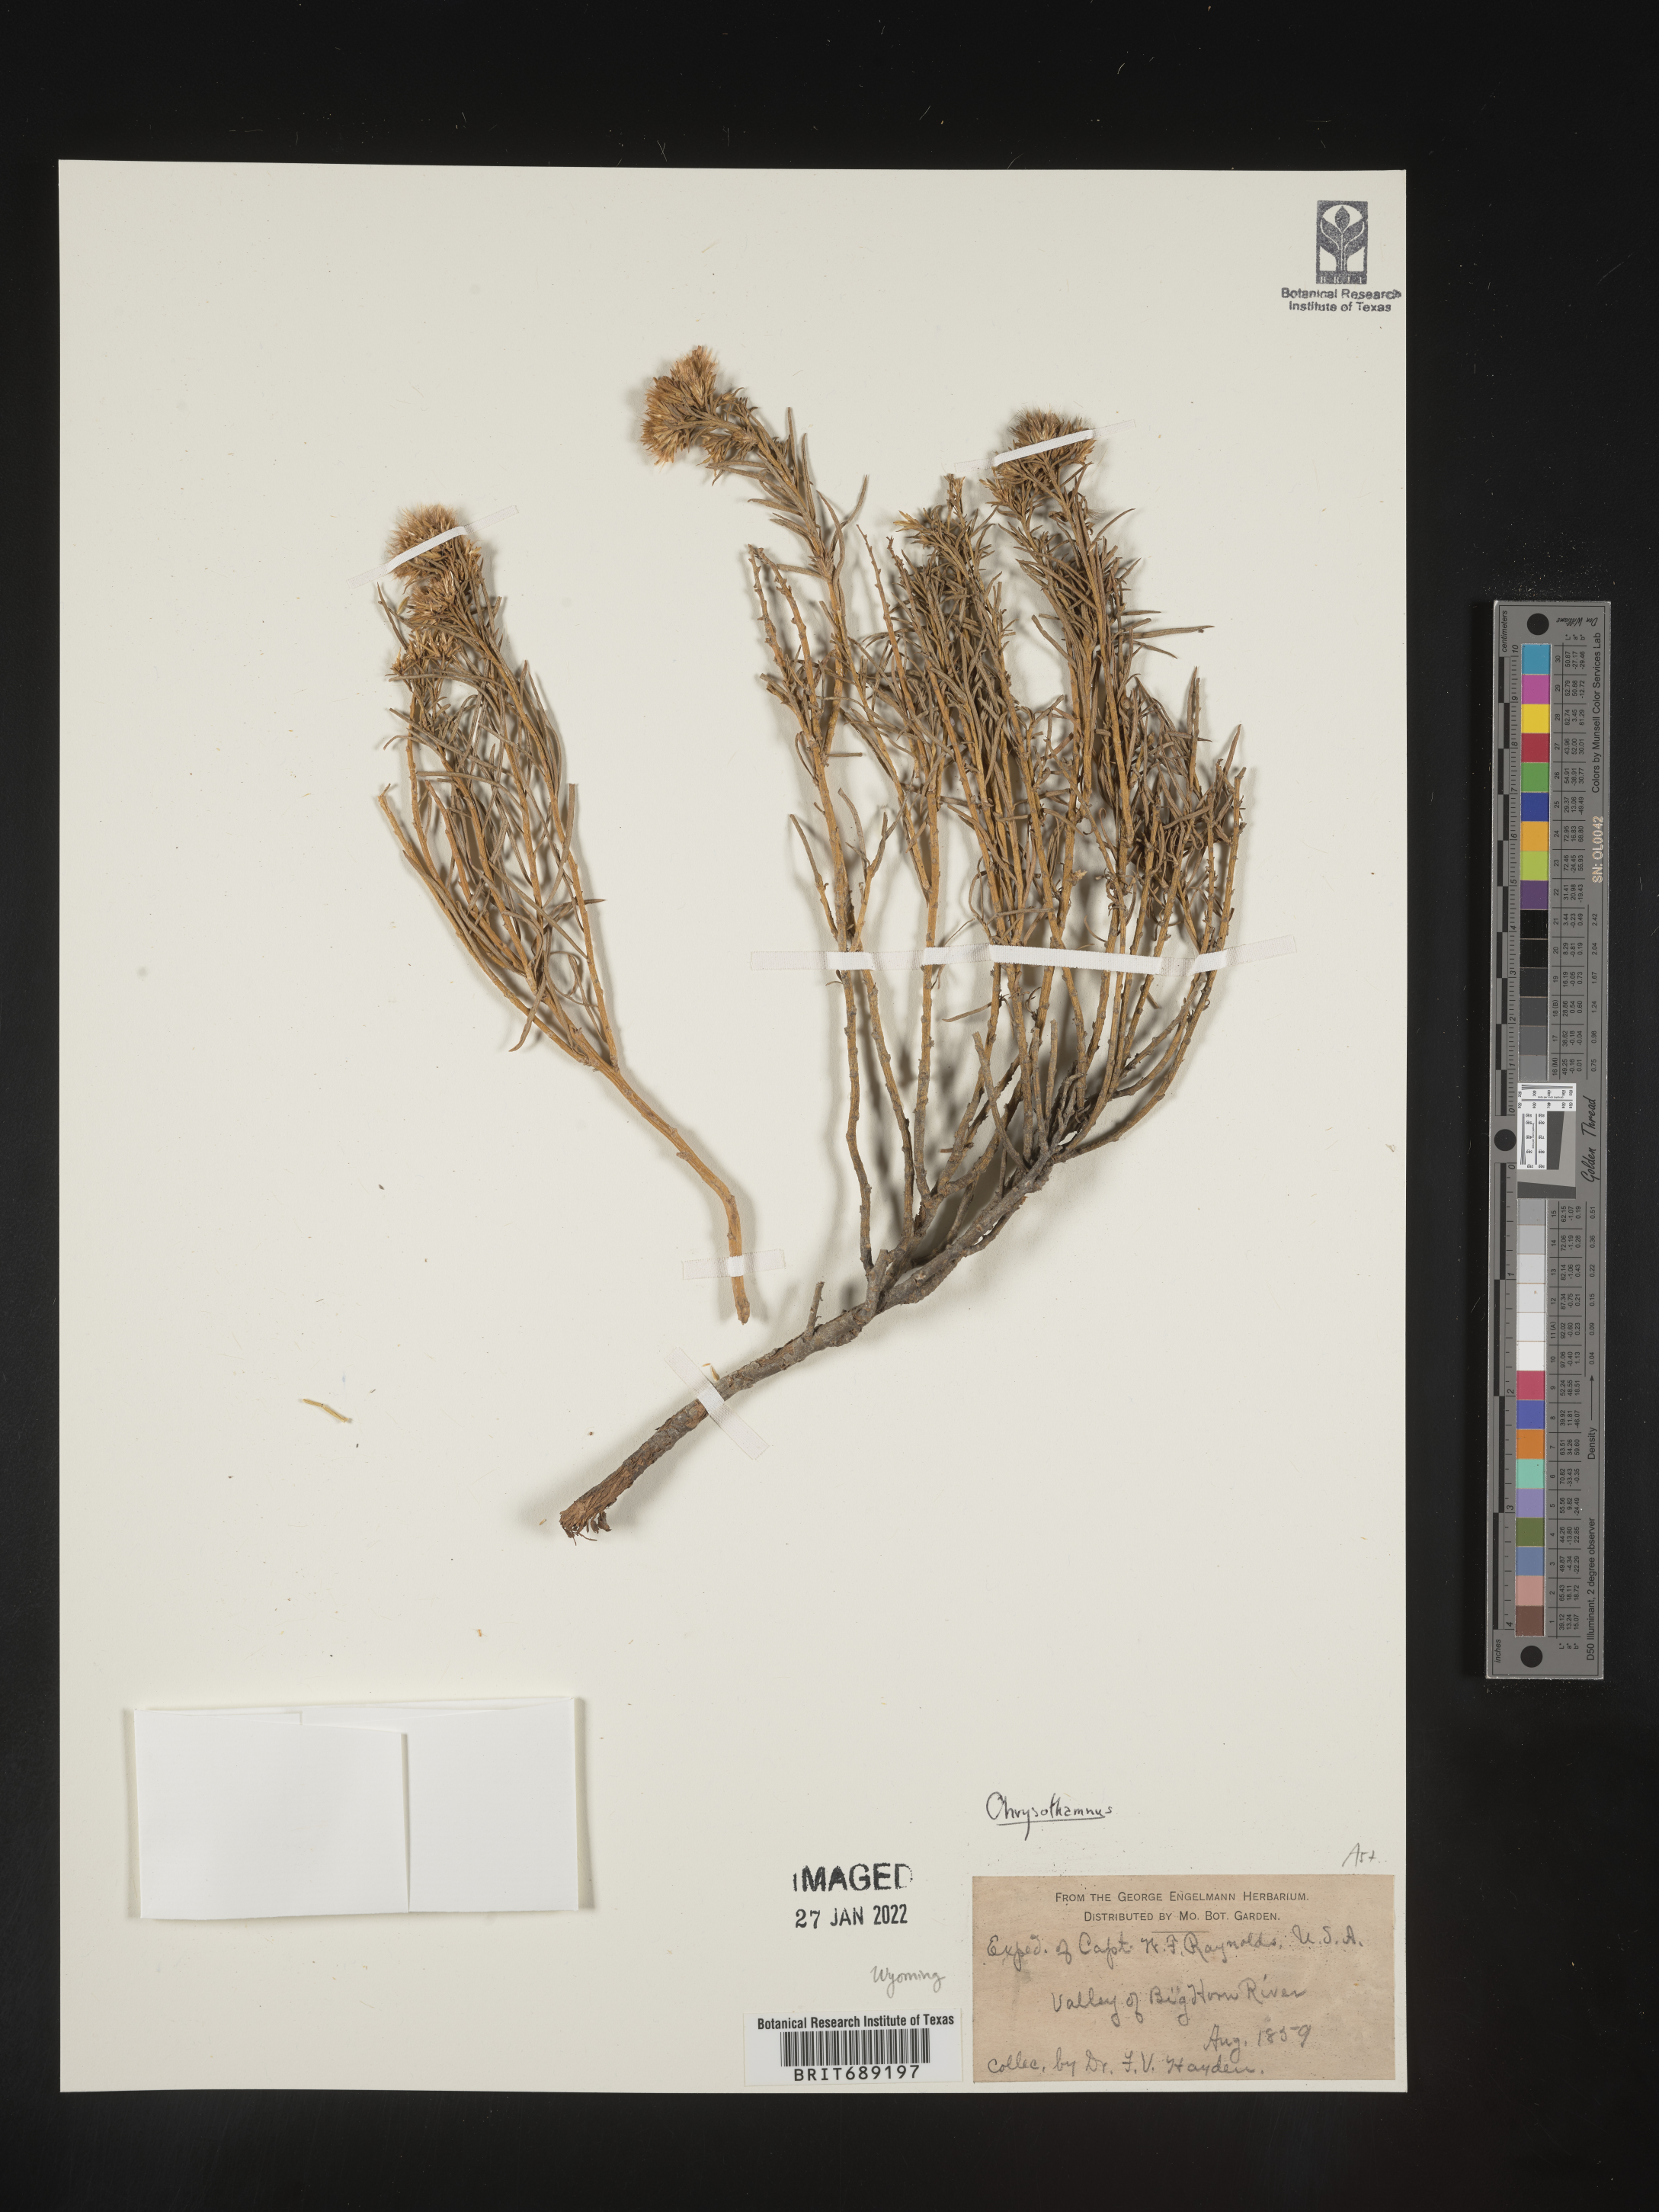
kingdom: Plantae
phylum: Tracheophyta
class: Magnoliopsida
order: Asterales
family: Asteraceae
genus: Chrysothamnus
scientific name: Chrysothamnus
